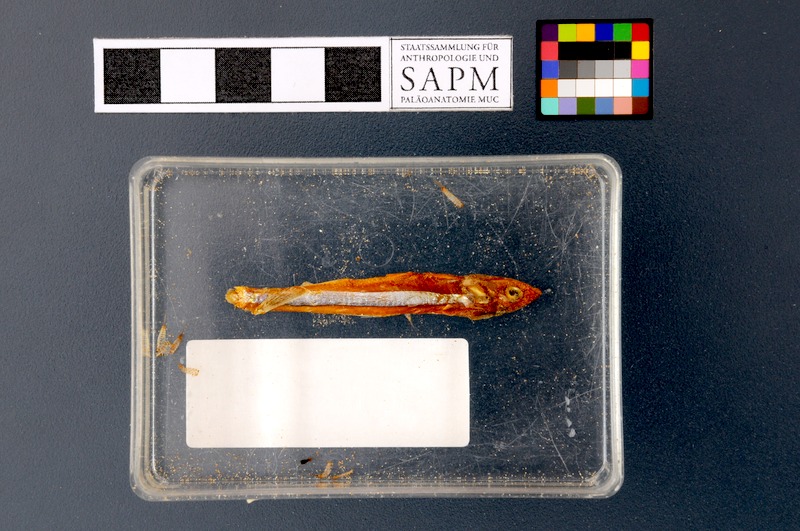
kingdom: Animalia
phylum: Chordata
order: Clupeiformes
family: Clupeidae
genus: Sardinella
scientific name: Sardinella gibbosa
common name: Goldstripe sardinella
